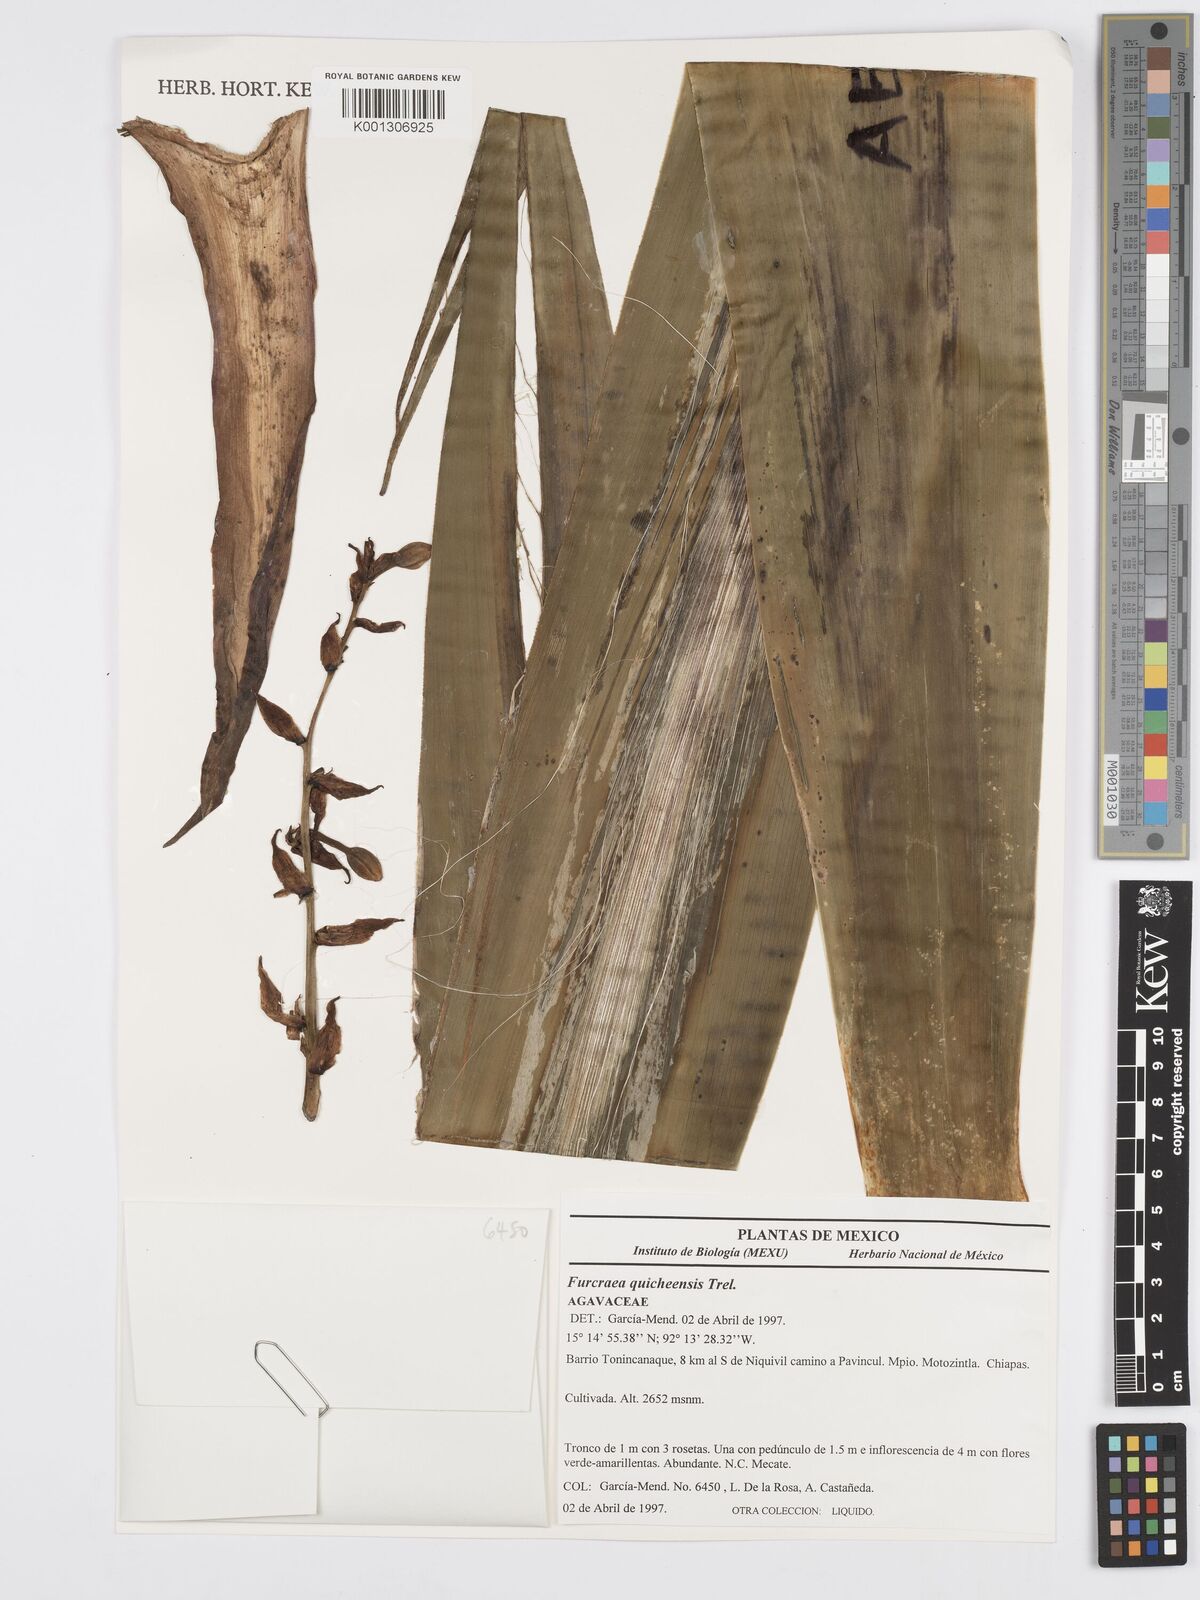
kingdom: Plantae
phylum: Tracheophyta
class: Liliopsida
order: Asparagales
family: Asparagaceae
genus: Furcraea
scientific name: Furcraea quicheensis
